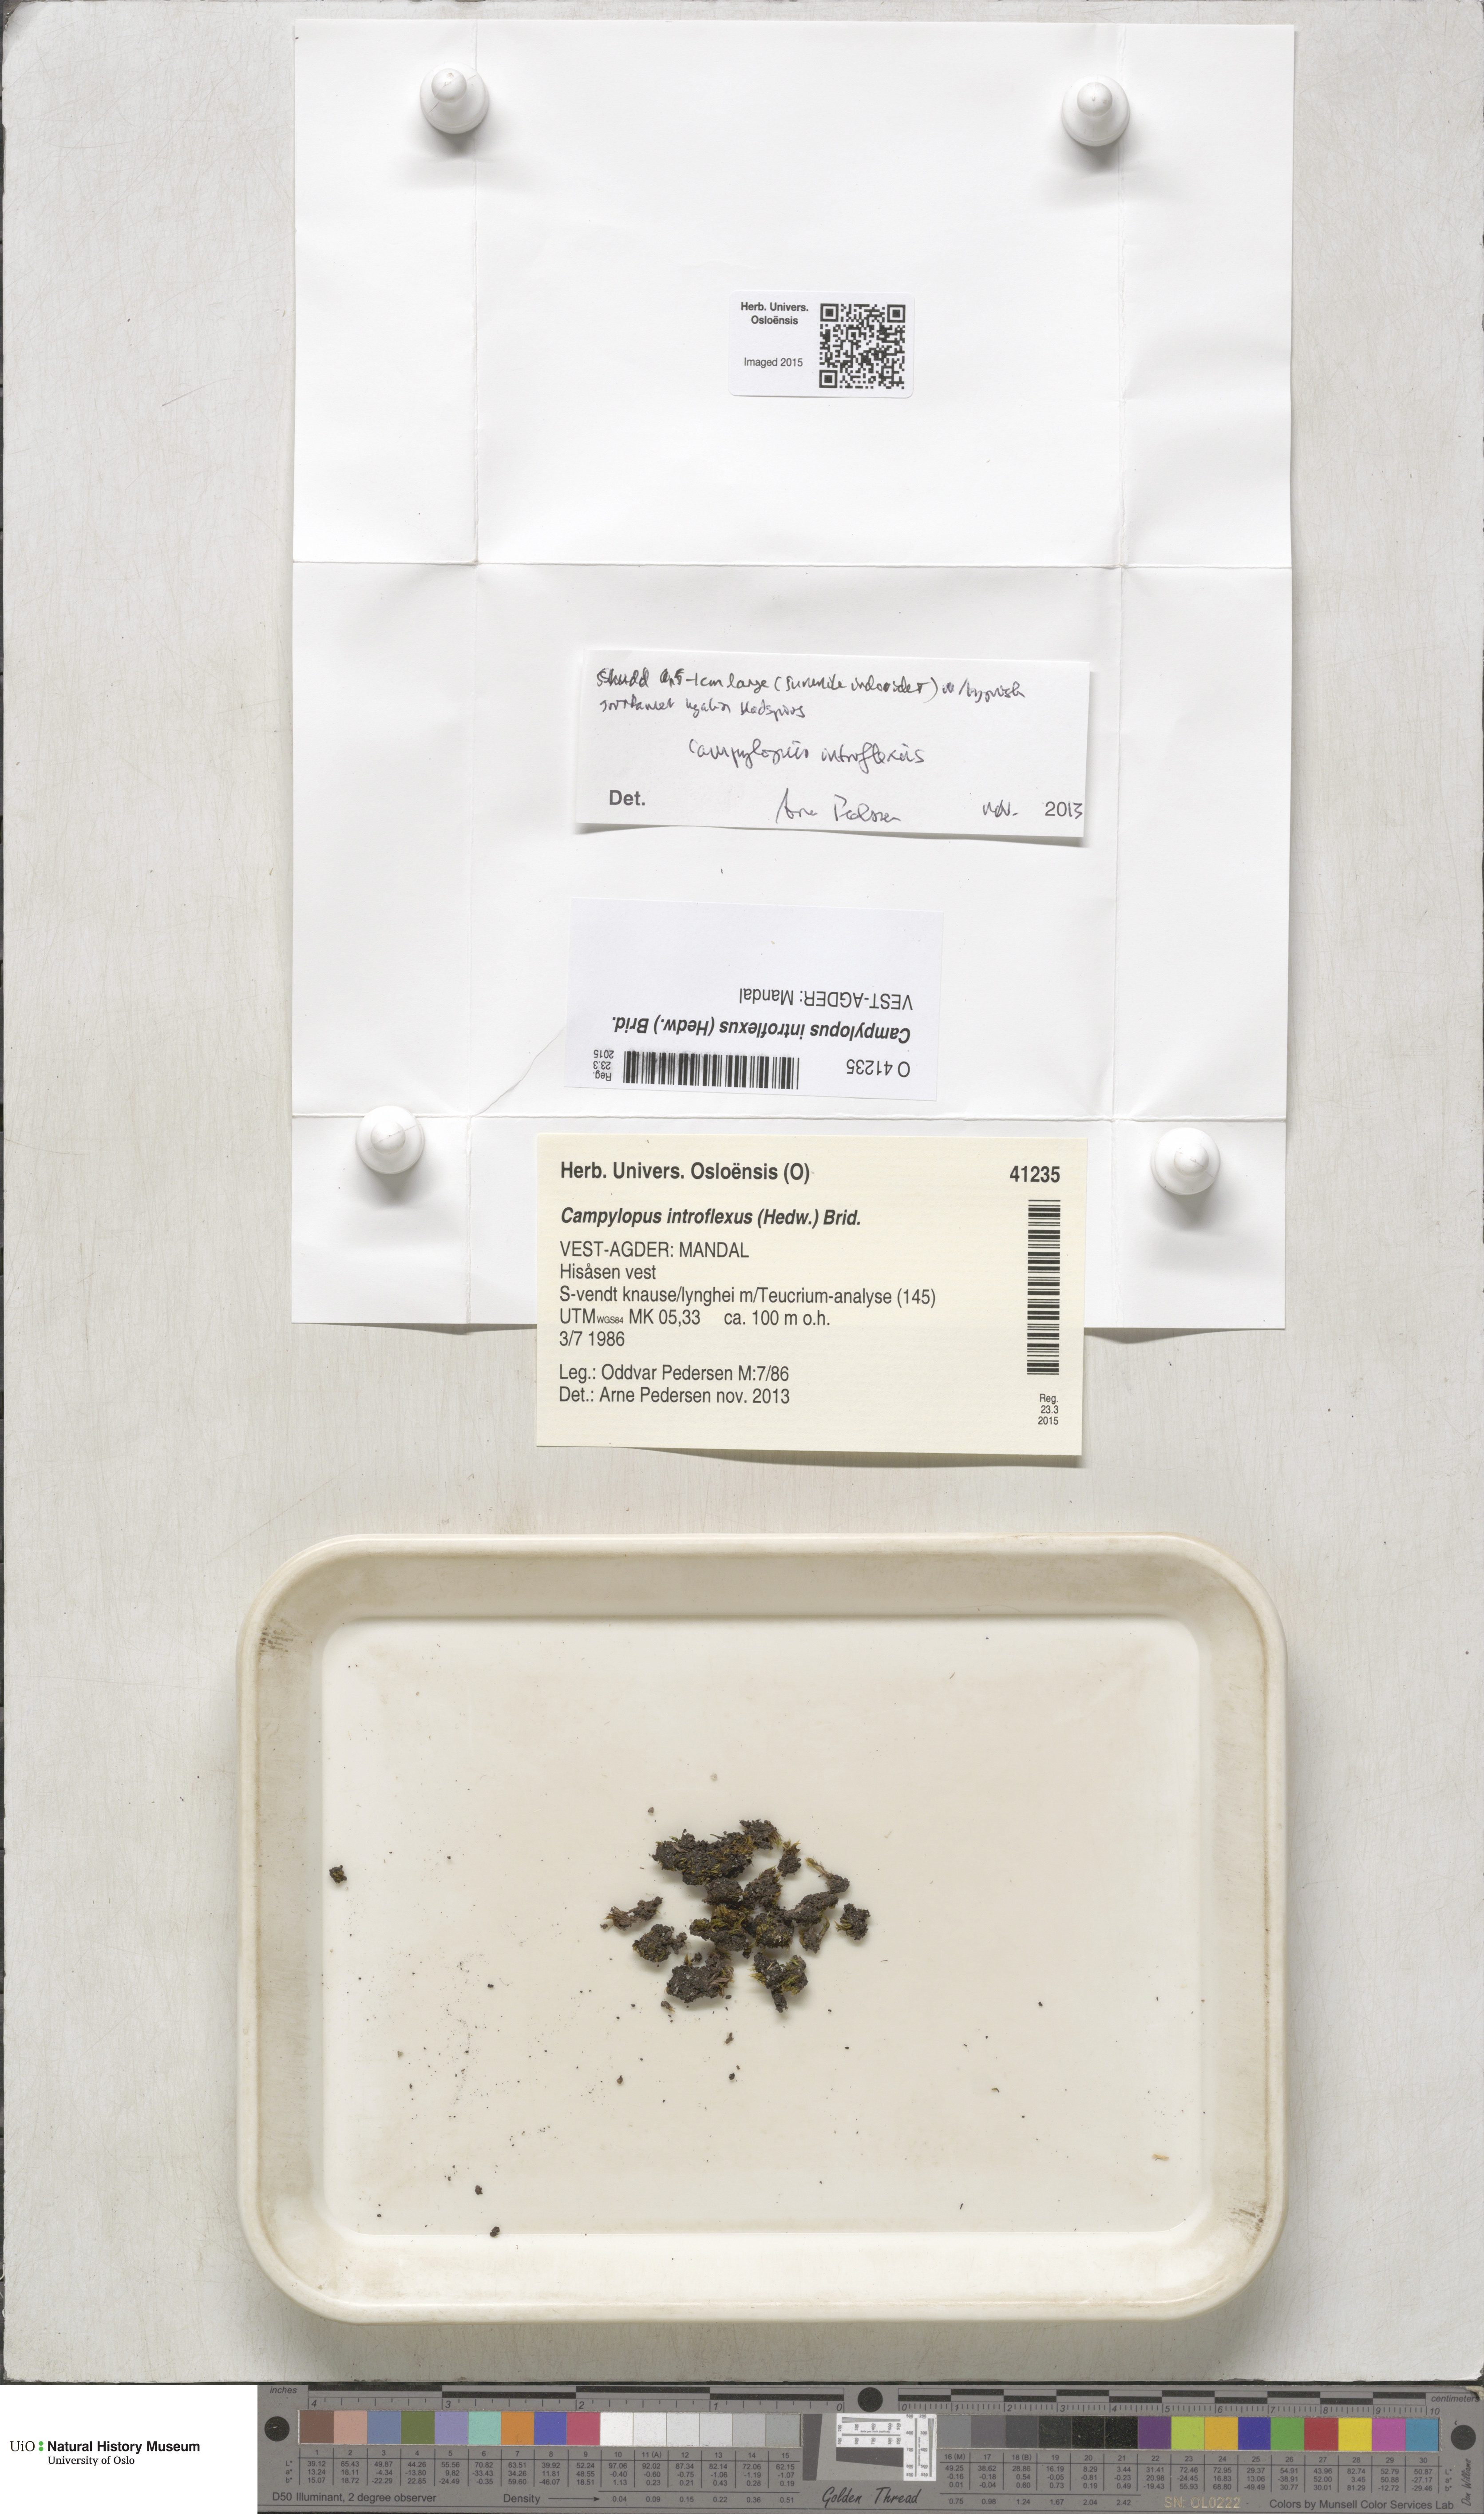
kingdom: Plantae
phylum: Bryophyta
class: Bryopsida
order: Dicranales
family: Leucobryaceae
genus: Campylopus
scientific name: Campylopus introflexus
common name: Heath star moss
